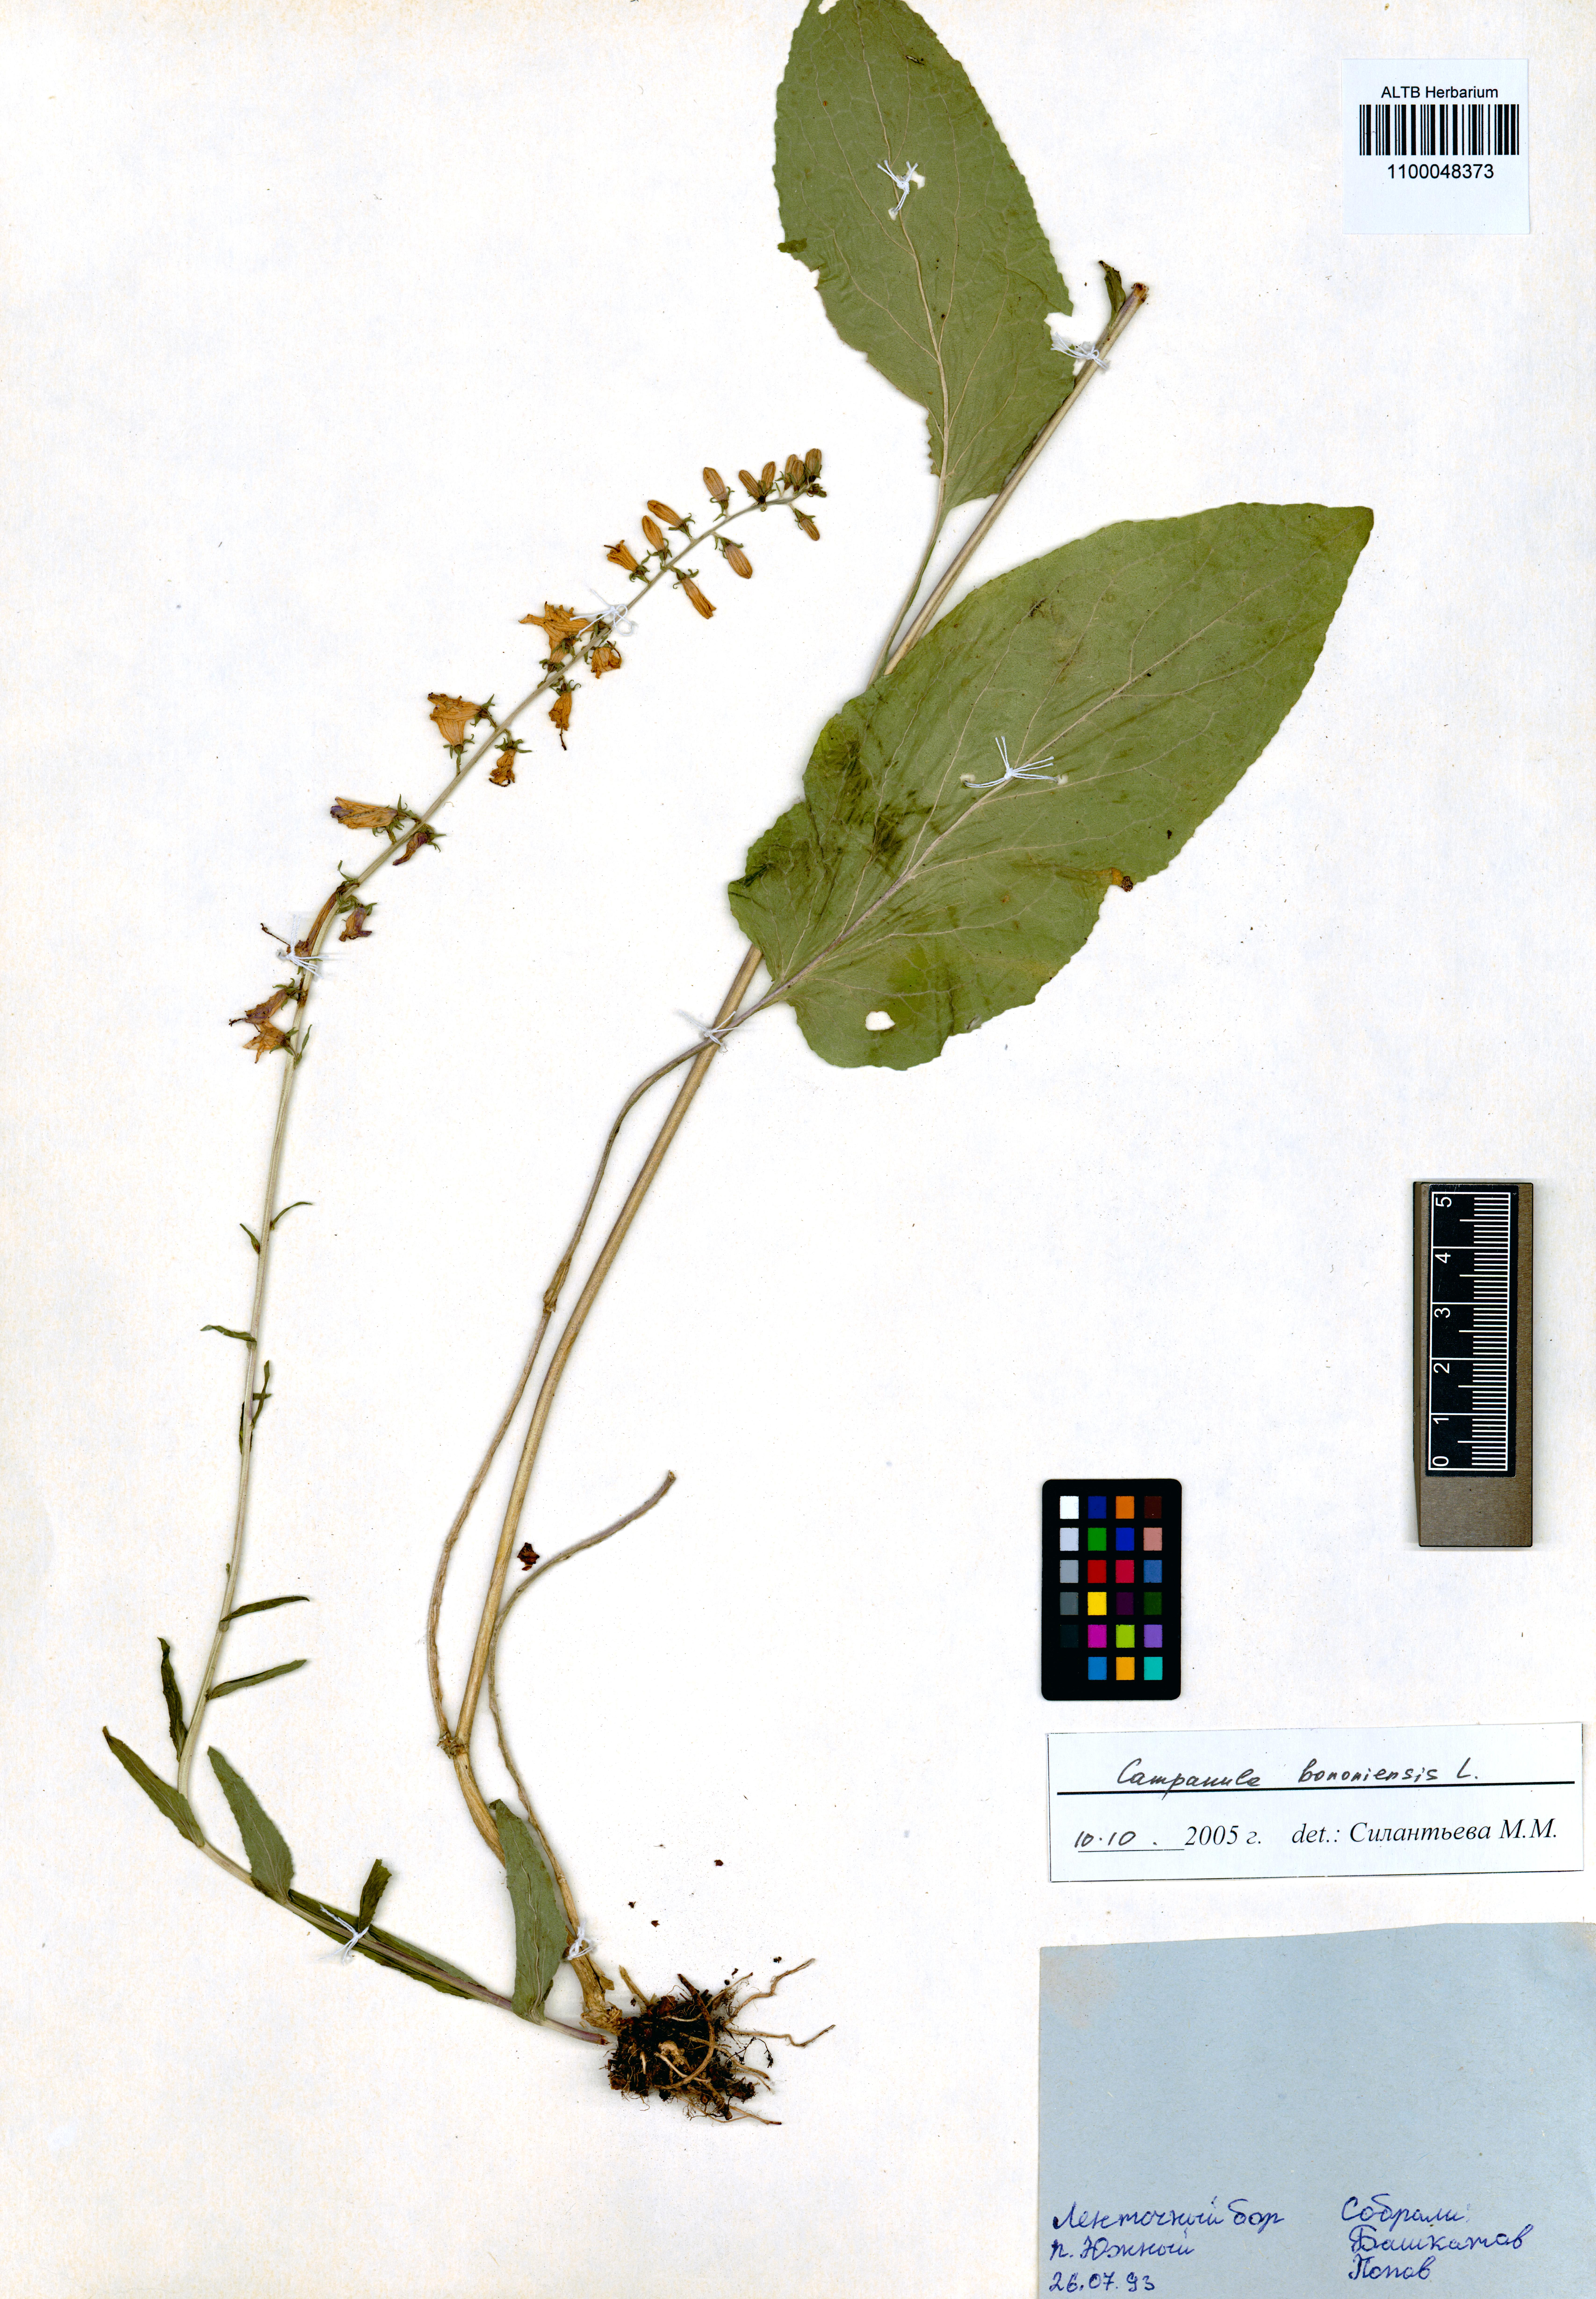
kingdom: Plantae
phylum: Tracheophyta
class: Magnoliopsida
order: Asterales
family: Campanulaceae
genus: Campanula
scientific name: Campanula bononiensis
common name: Pale bellflower
